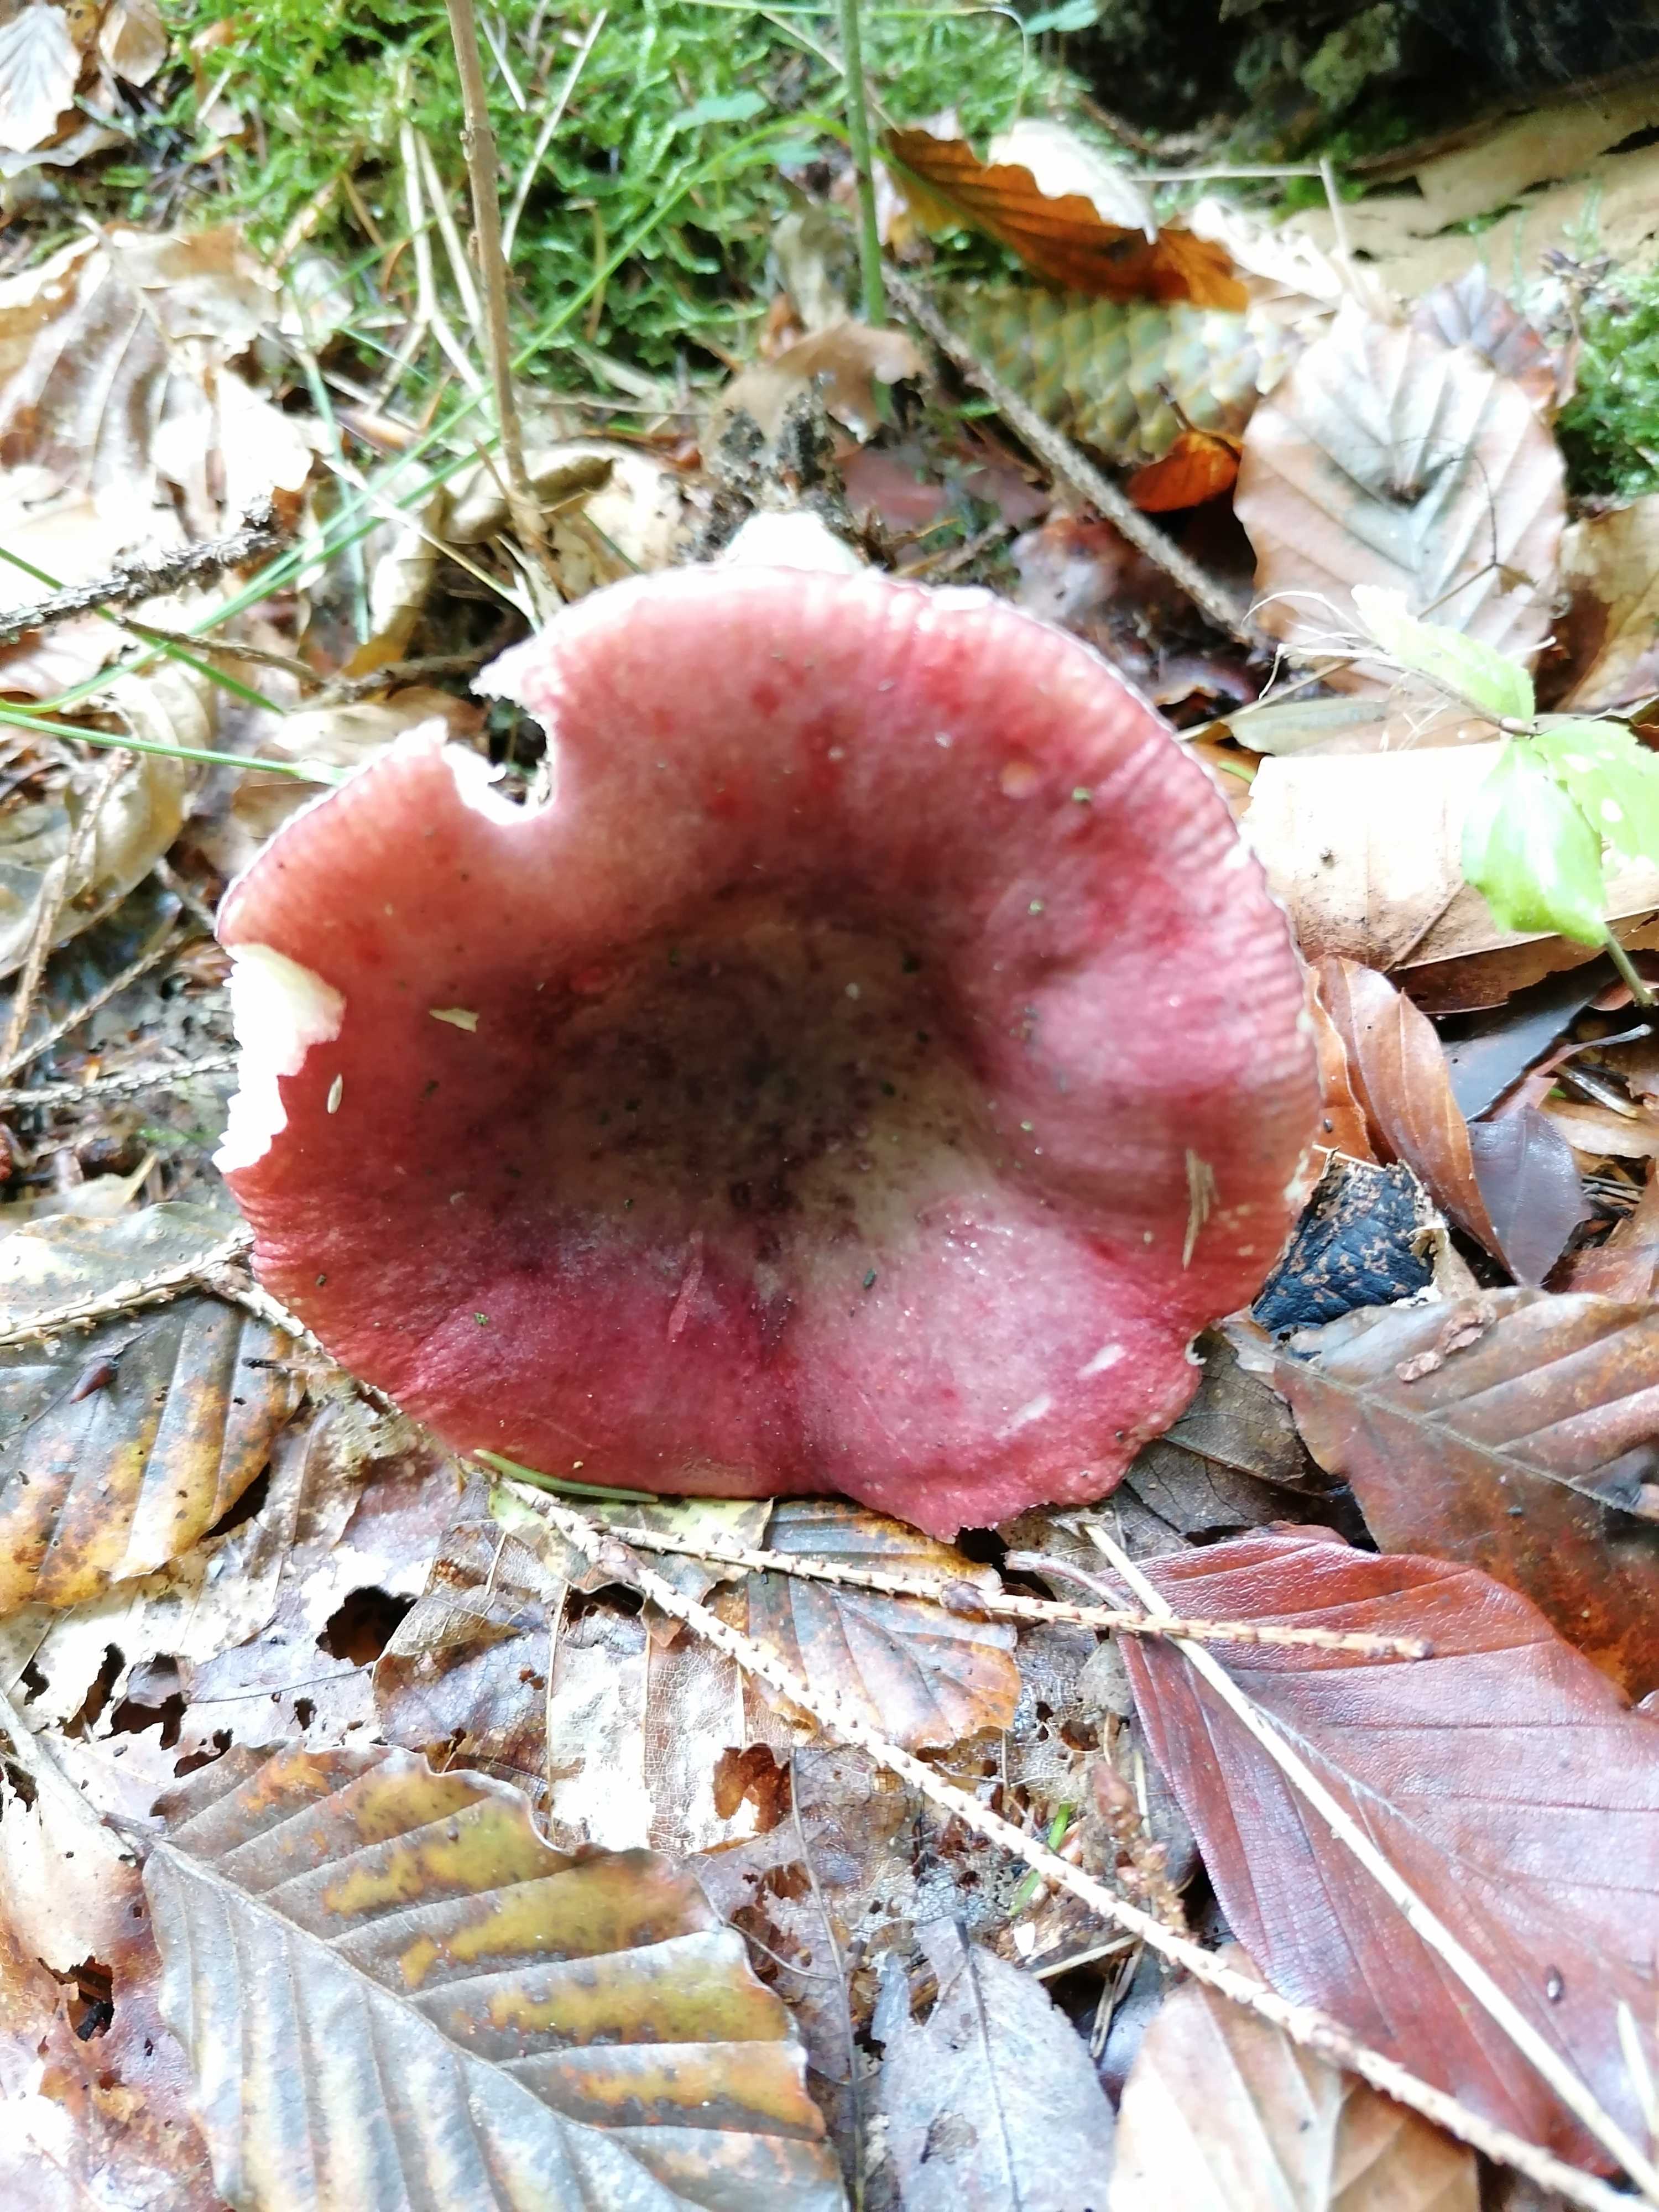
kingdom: Fungi
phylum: Basidiomycota
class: Agaricomycetes
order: Russulales
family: Russulaceae
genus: Russula
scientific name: Russula queletii
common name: Quélets skørhat
